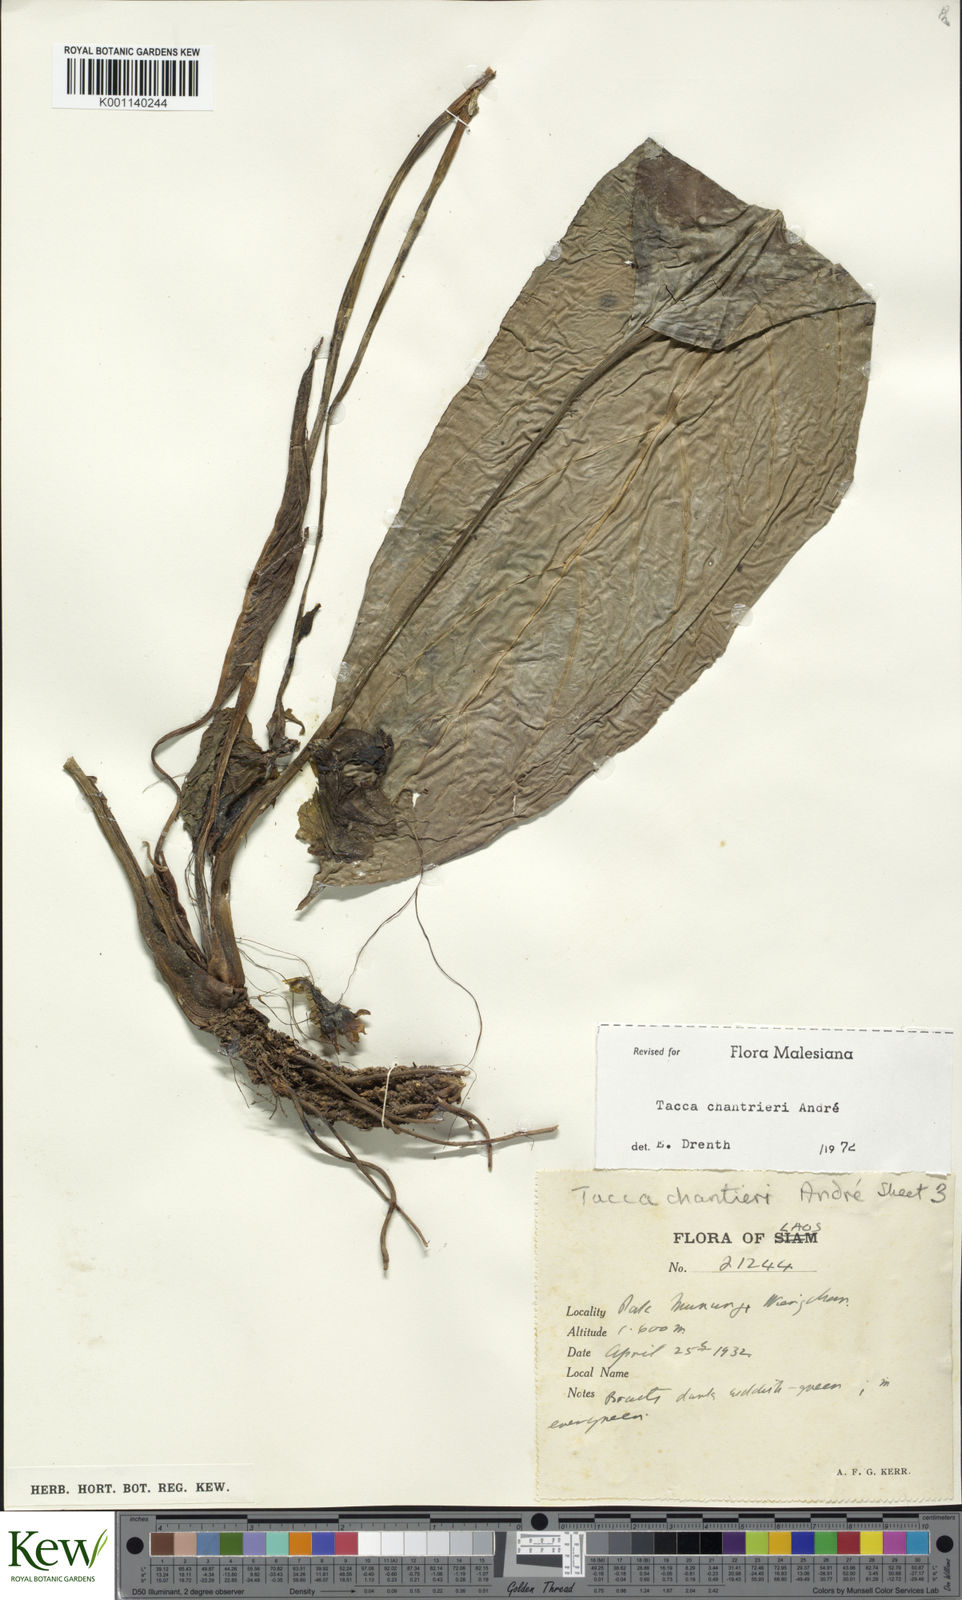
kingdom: Plantae
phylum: Tracheophyta
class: Liliopsida
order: Dioscoreales
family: Dioscoreaceae
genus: Tacca
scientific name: Tacca
